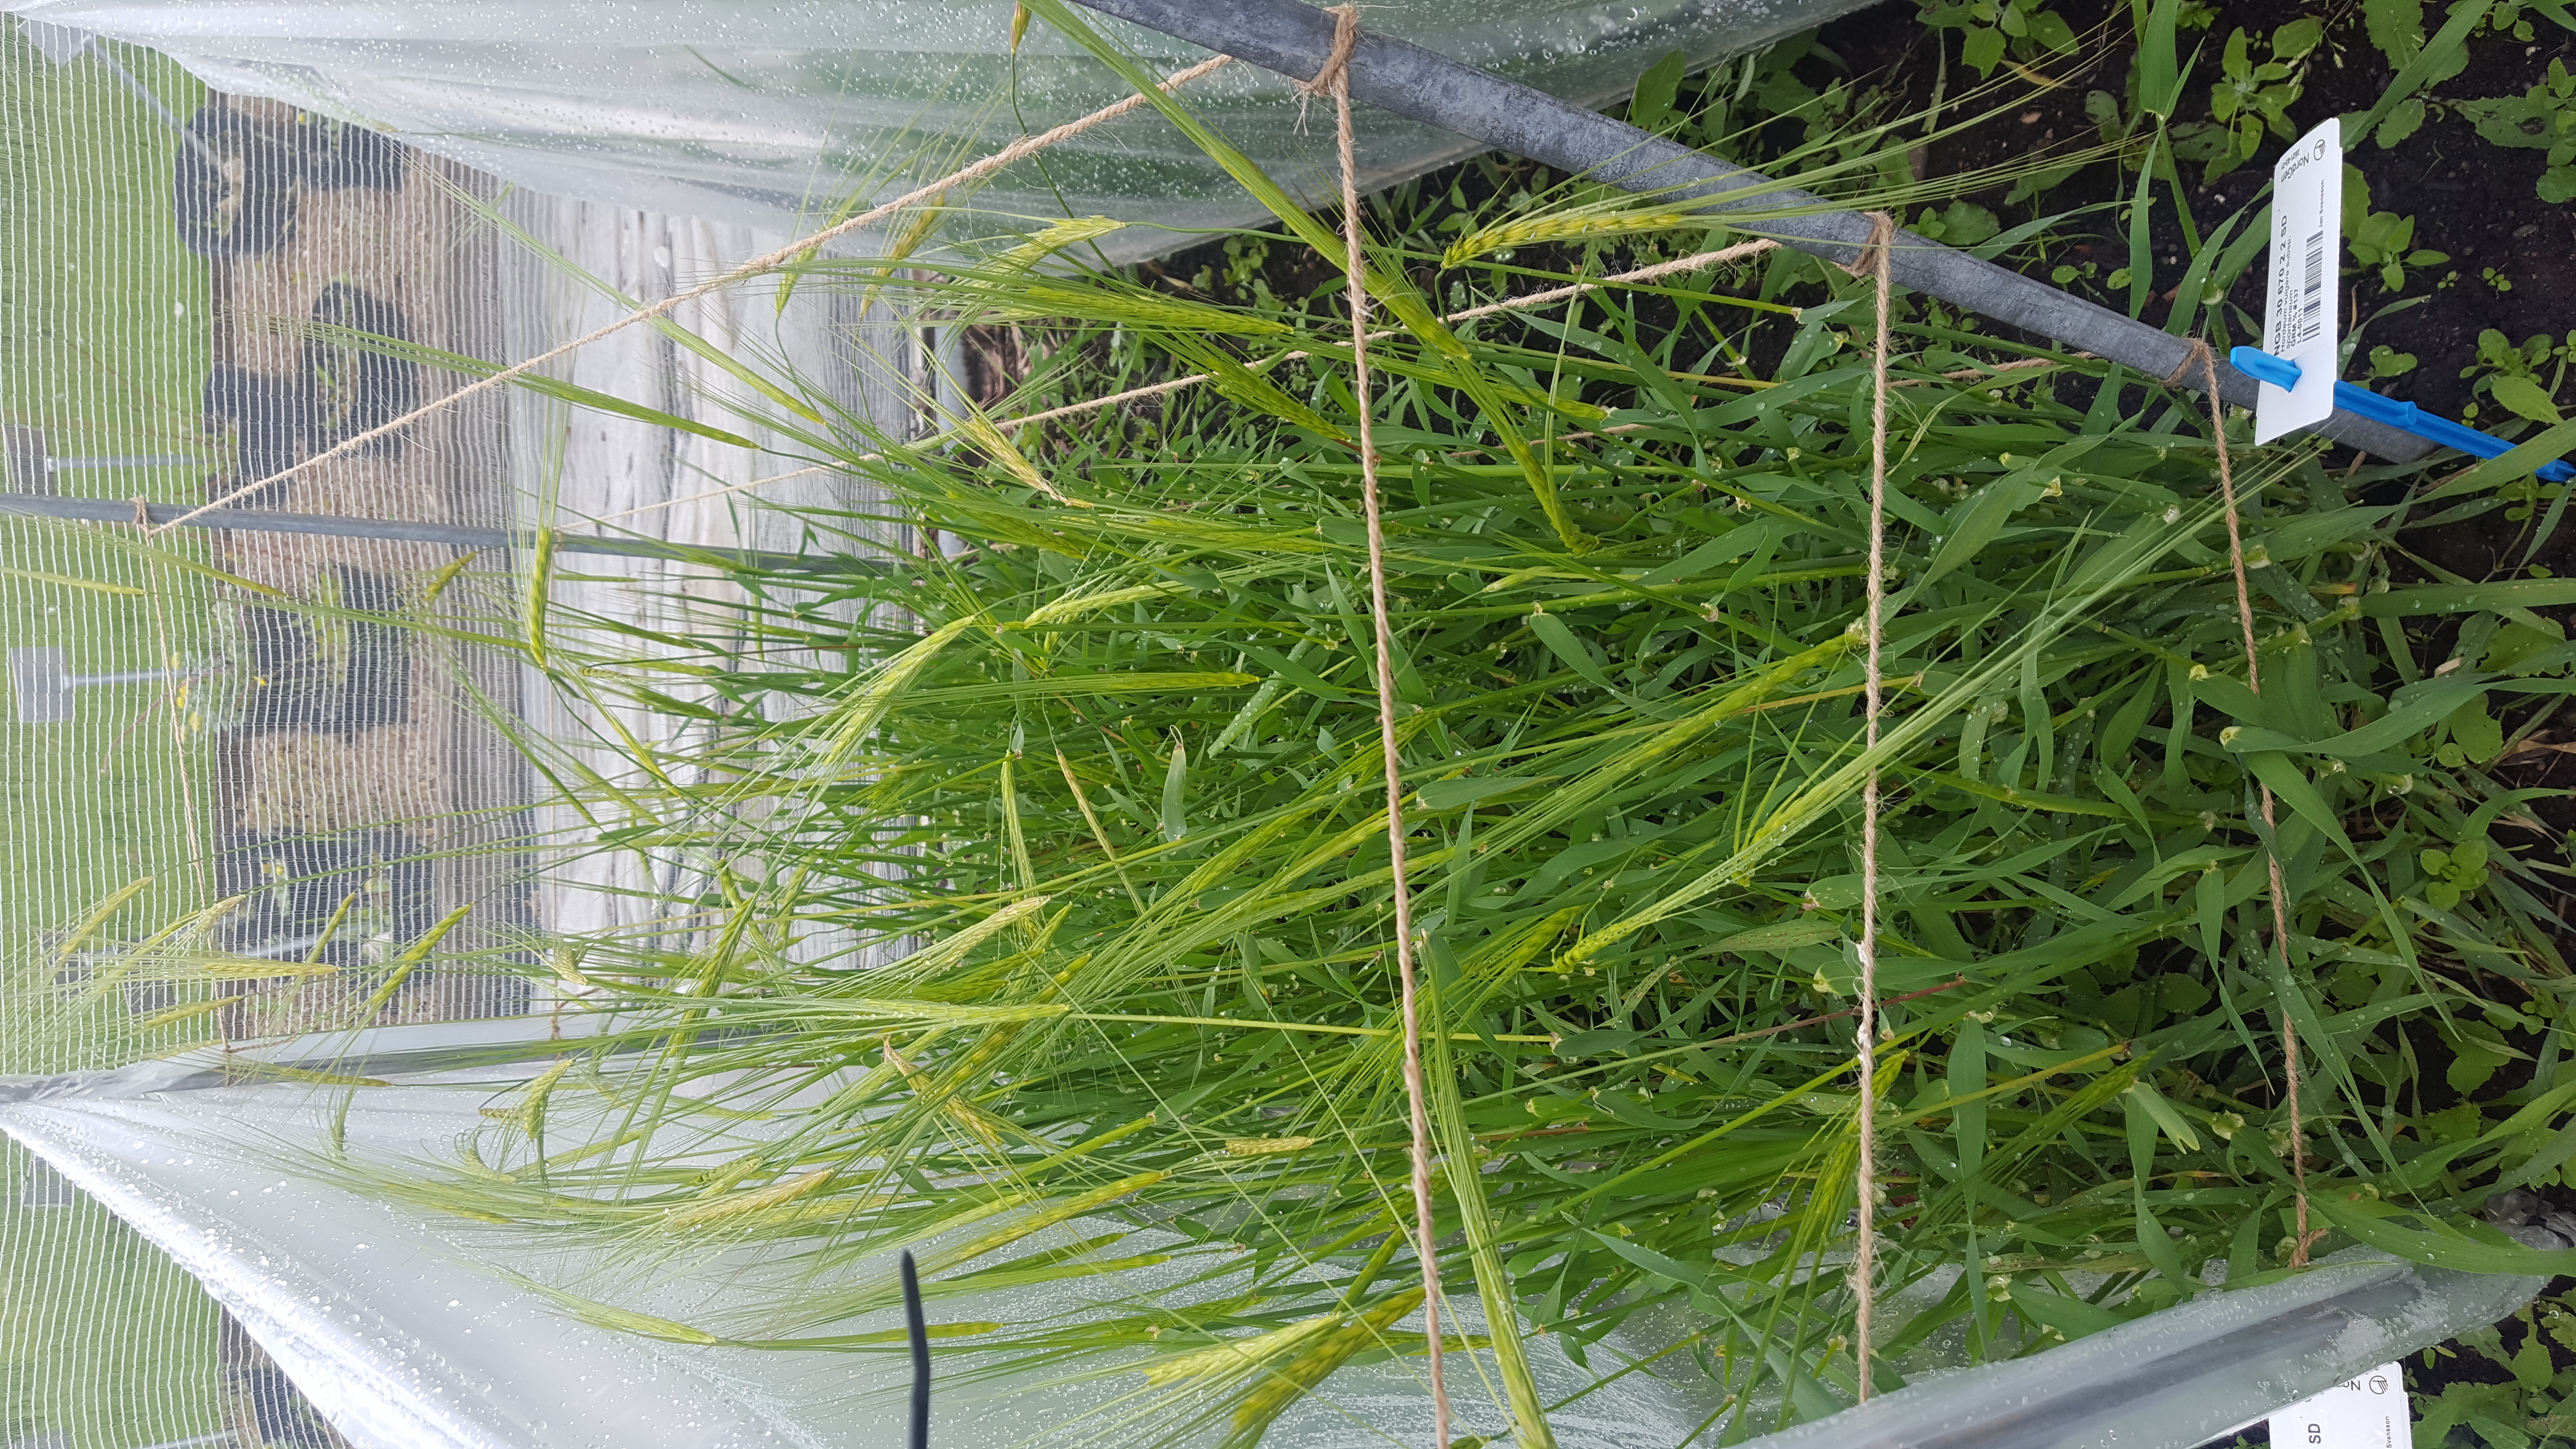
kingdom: Plantae
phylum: Tracheophyta
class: Liliopsida
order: Poales
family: Poaceae
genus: Hordeum
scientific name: Hordeum spontaneum
